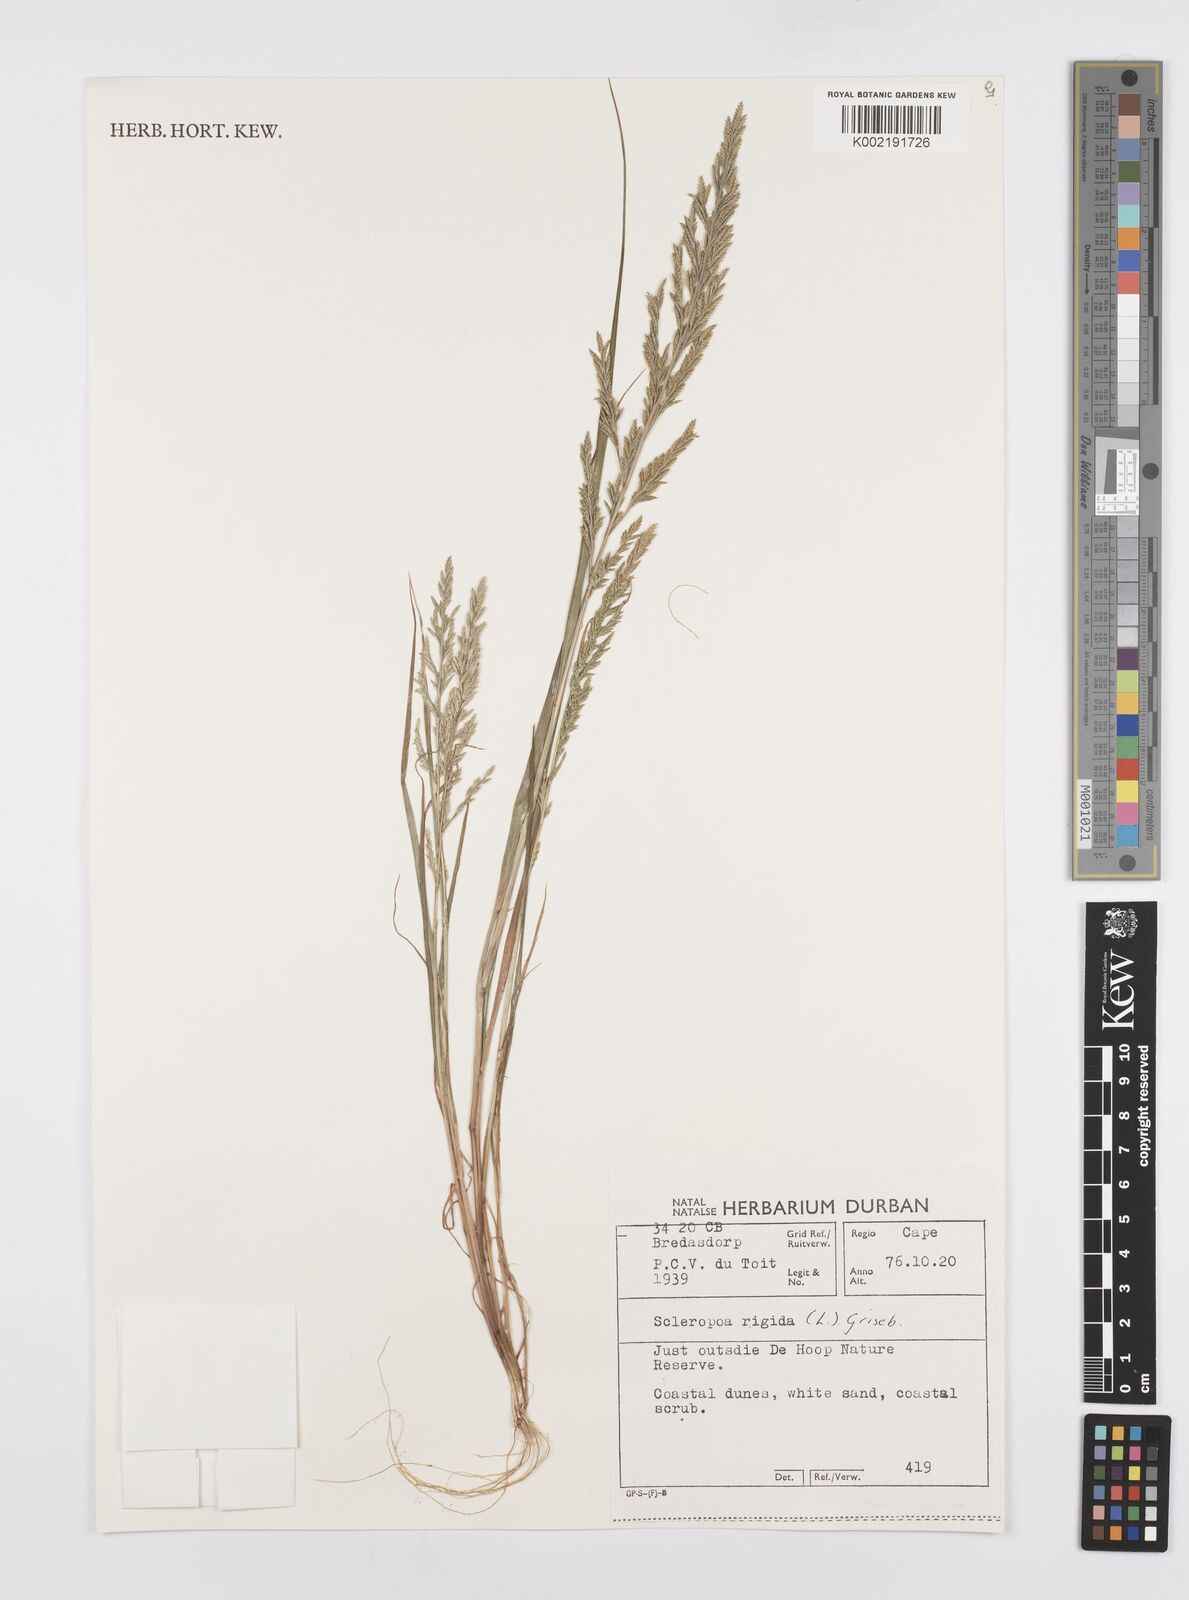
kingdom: Plantae
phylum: Tracheophyta
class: Liliopsida
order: Poales
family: Poaceae
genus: Catapodium
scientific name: Catapodium rigidum
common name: Fern-grass
